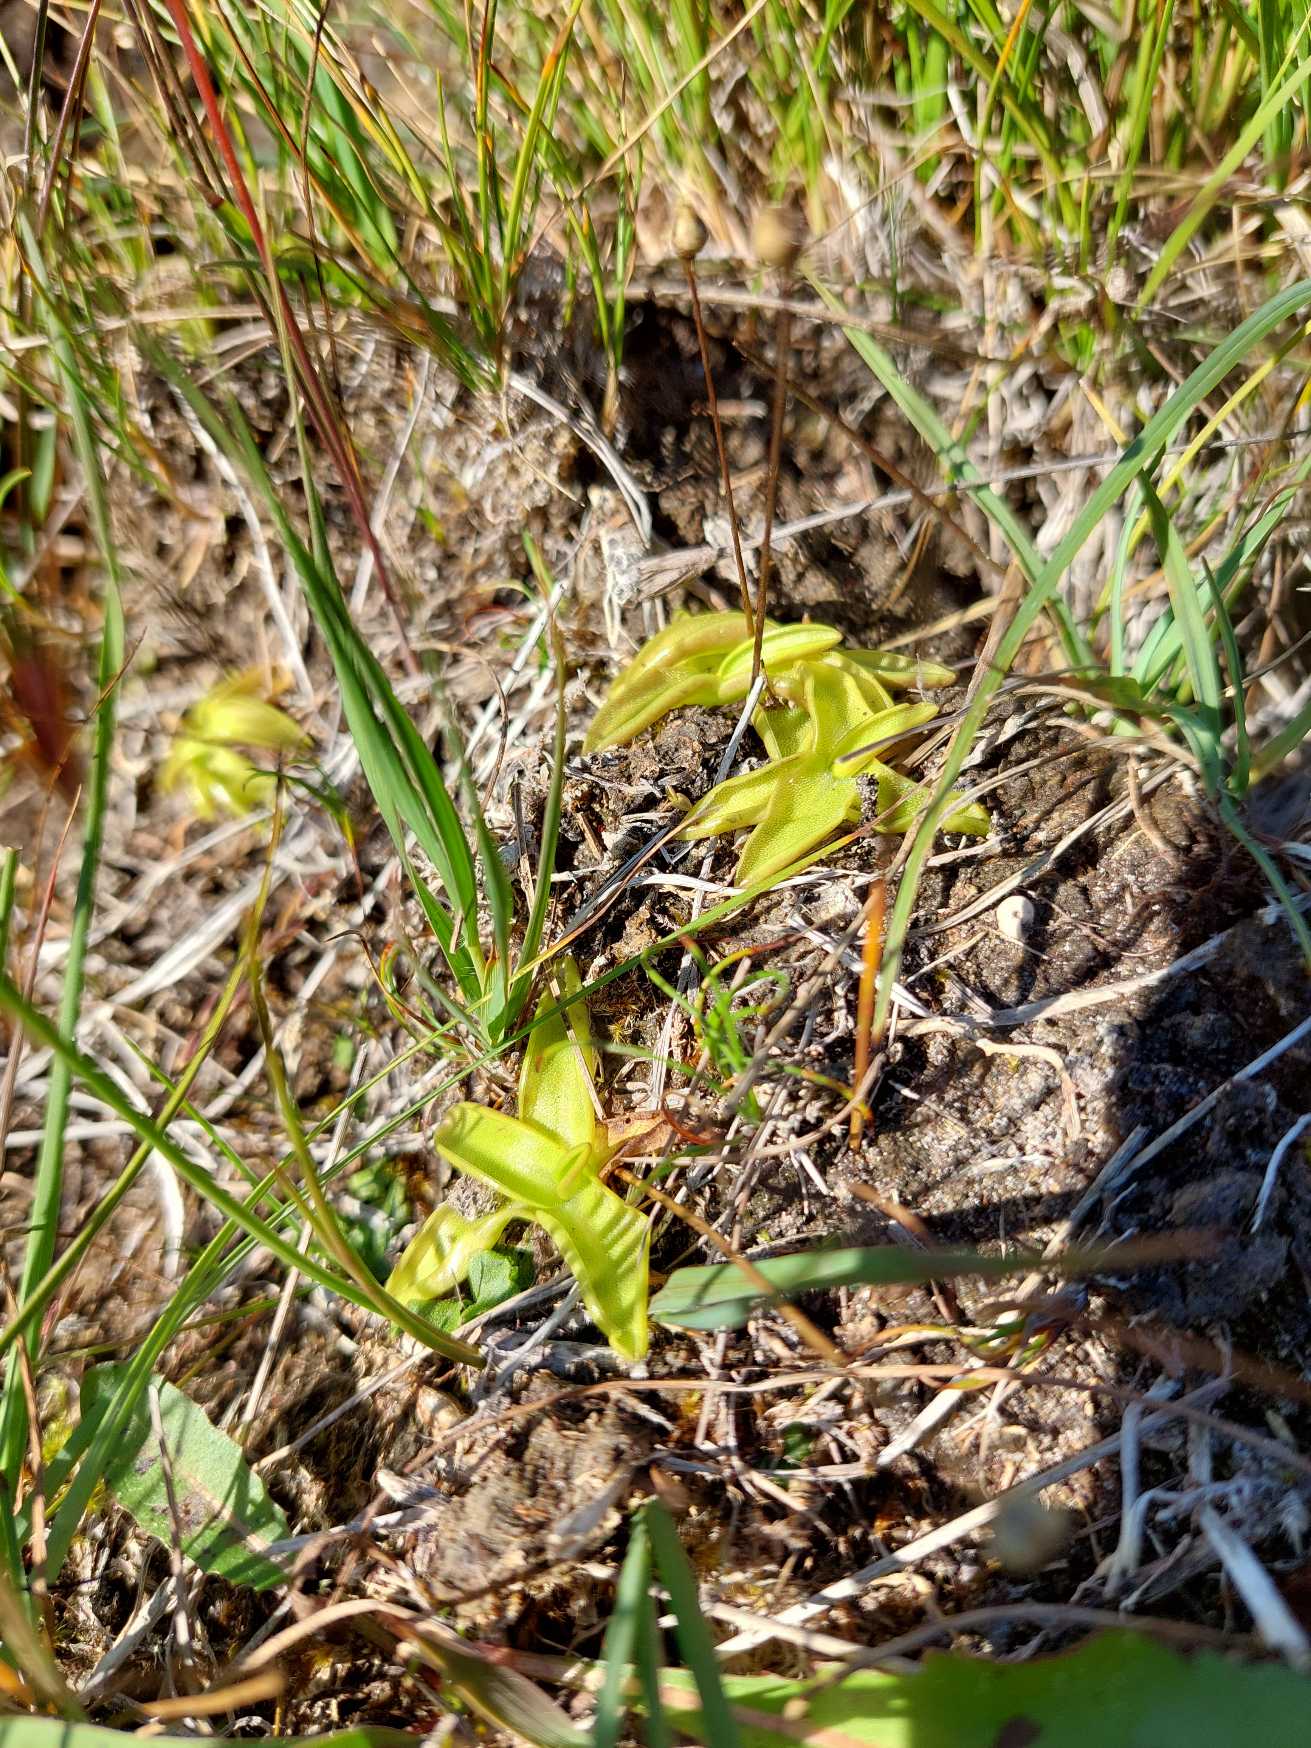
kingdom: Plantae
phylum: Tracheophyta
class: Magnoliopsida
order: Lamiales
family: Lentibulariaceae
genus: Pinguicula
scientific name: Pinguicula vulgaris
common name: Vibefedt
